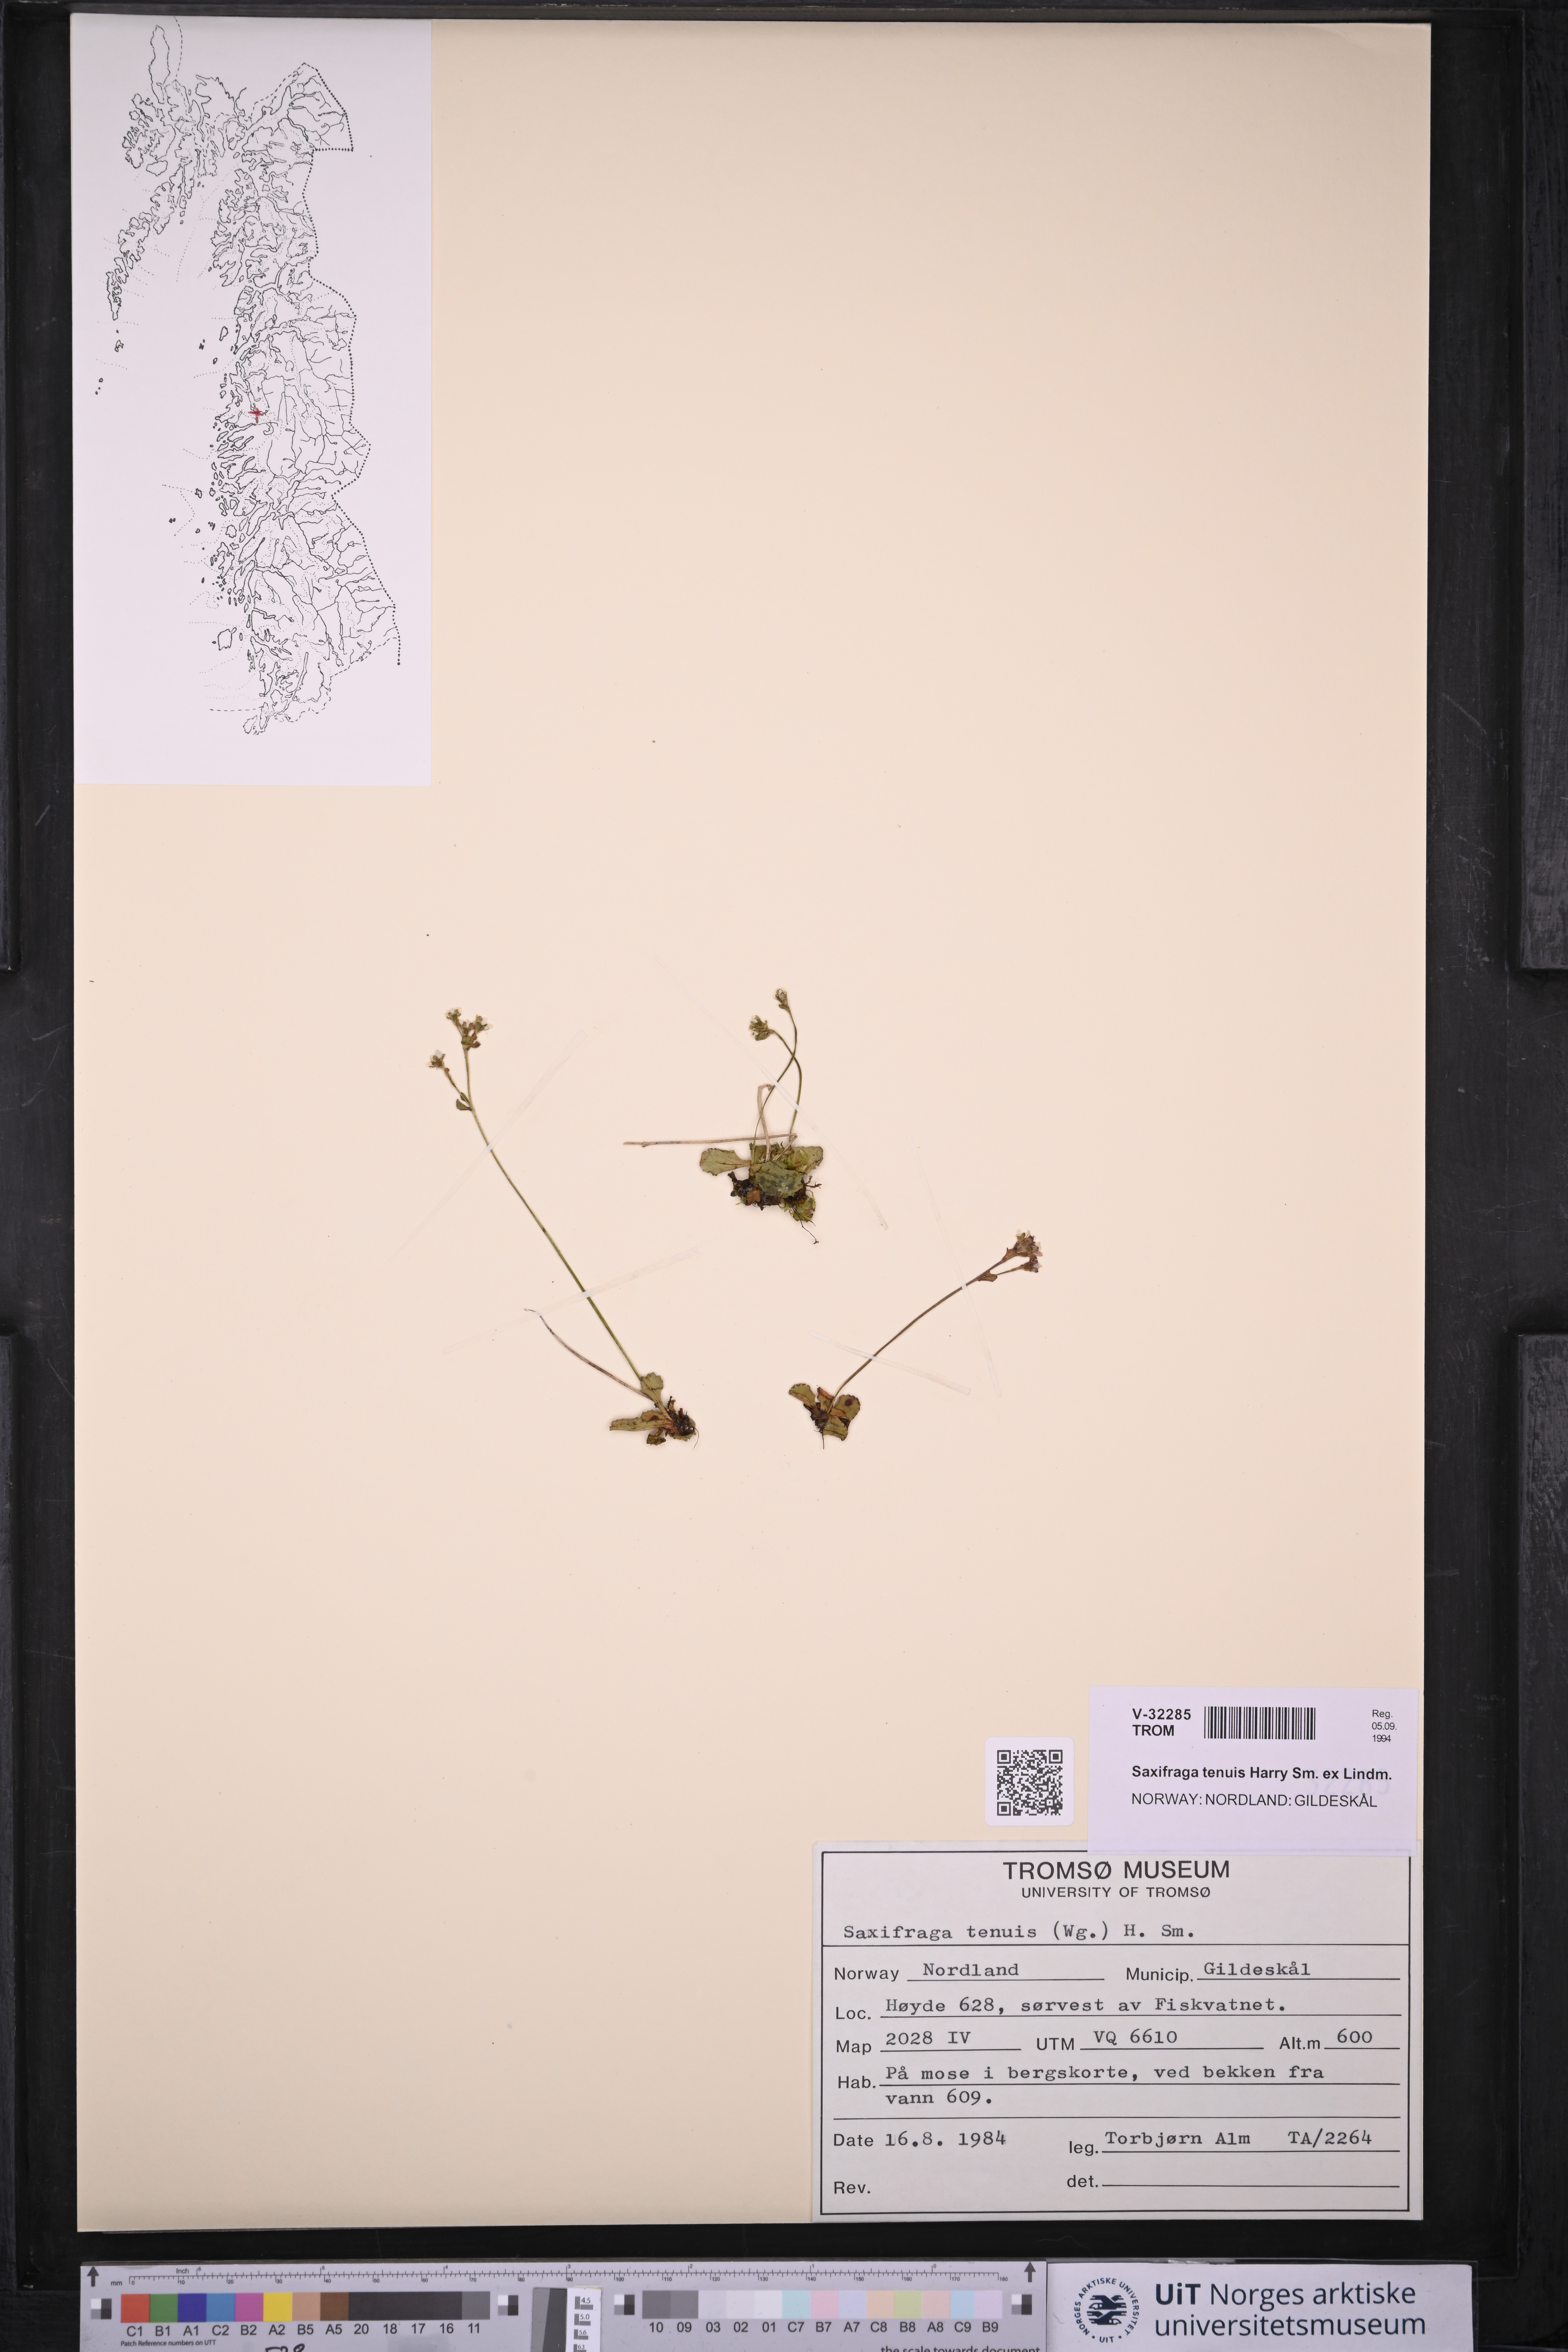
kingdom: Plantae
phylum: Tracheophyta
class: Magnoliopsida
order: Saxifragales
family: Saxifragaceae
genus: Micranthes
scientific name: Micranthes tenuis
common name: Ottertail pass saxifrage
